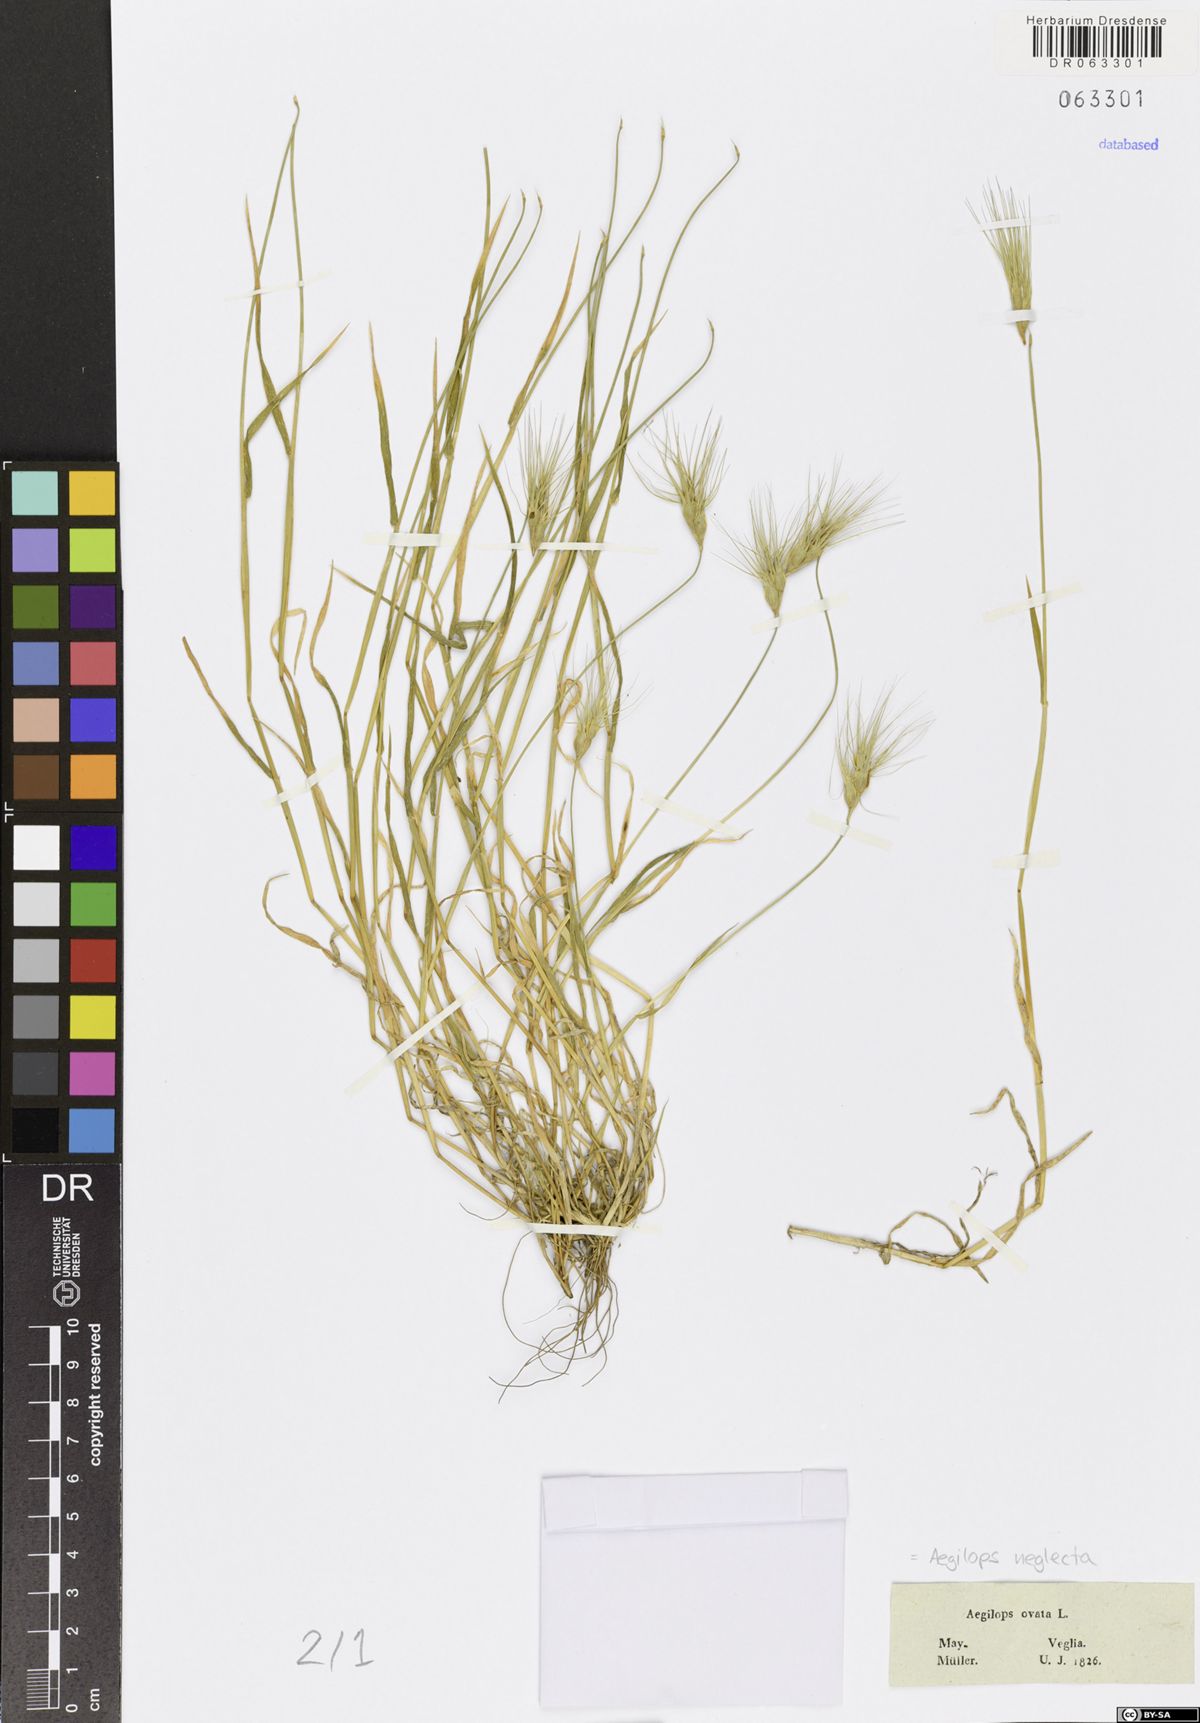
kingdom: Plantae
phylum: Tracheophyta
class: Liliopsida
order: Poales
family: Poaceae
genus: Aegilops
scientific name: Aegilops neglecta
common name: Three-awn goat grass
